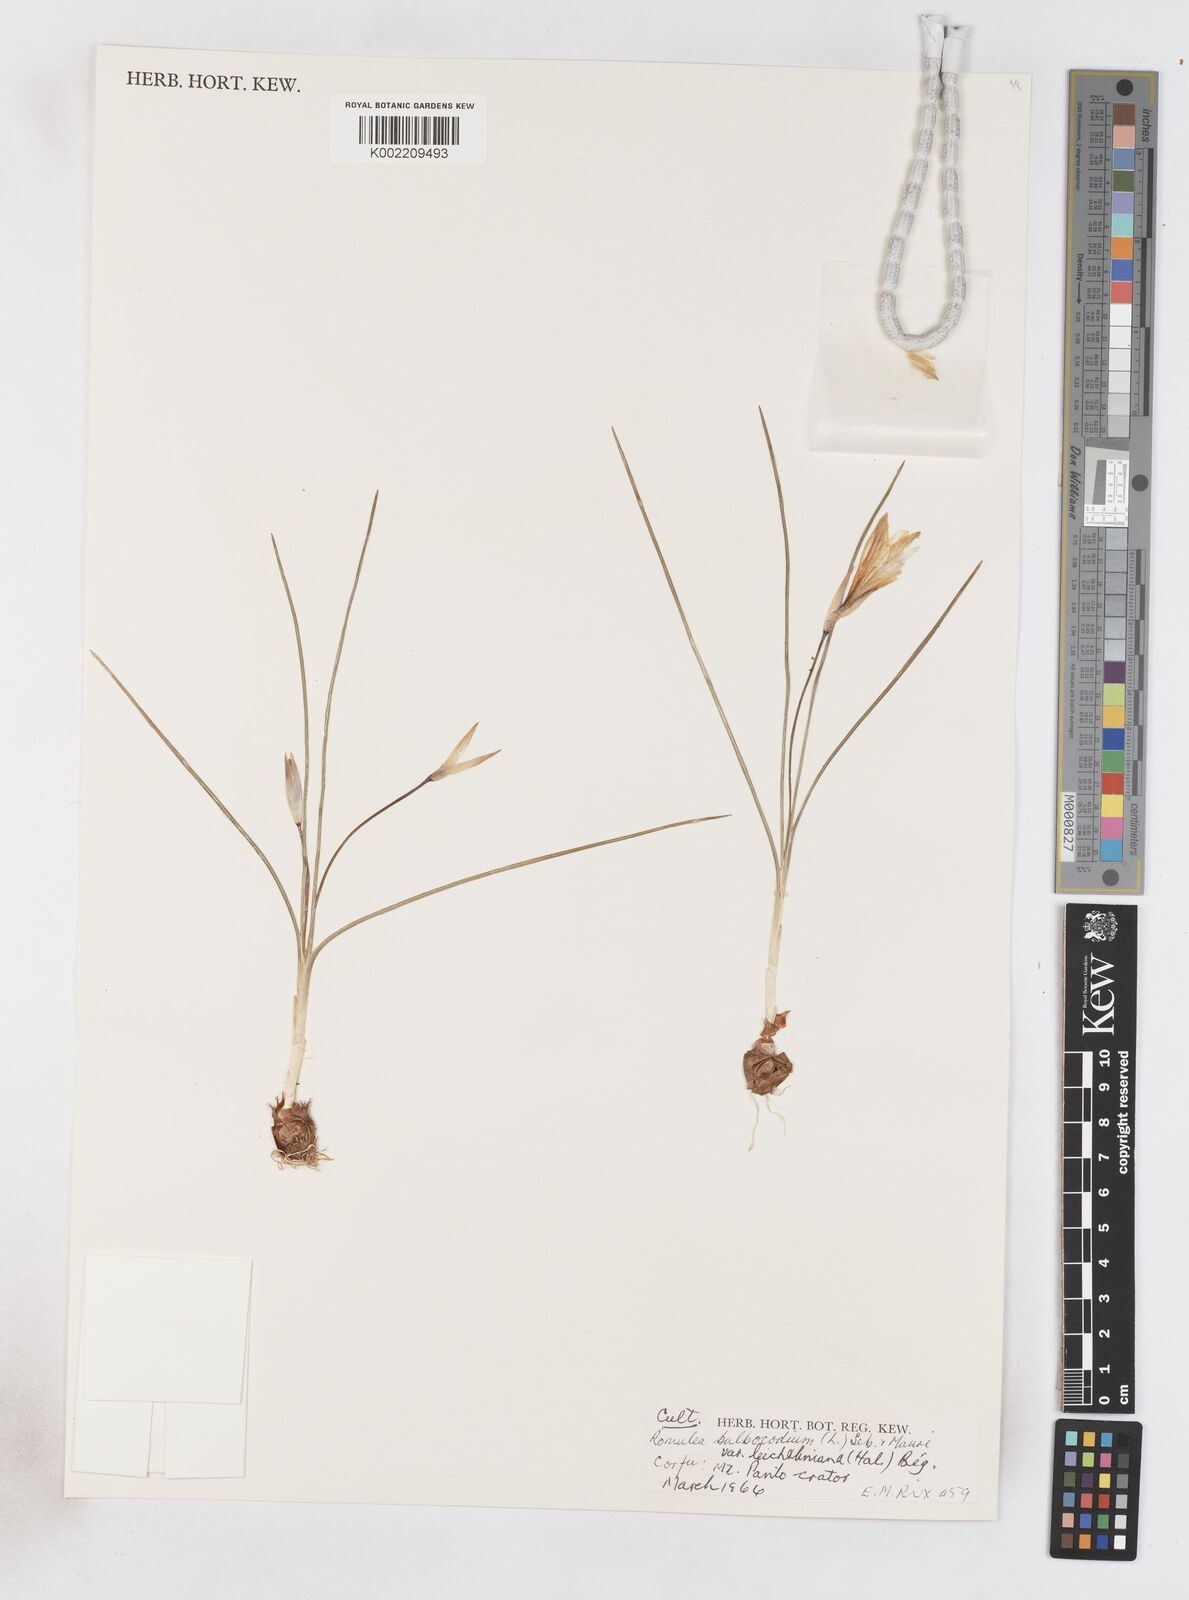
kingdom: Plantae
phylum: Tracheophyta
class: Liliopsida
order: Asparagales
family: Iridaceae
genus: Romulea
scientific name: Romulea bulbocodium
